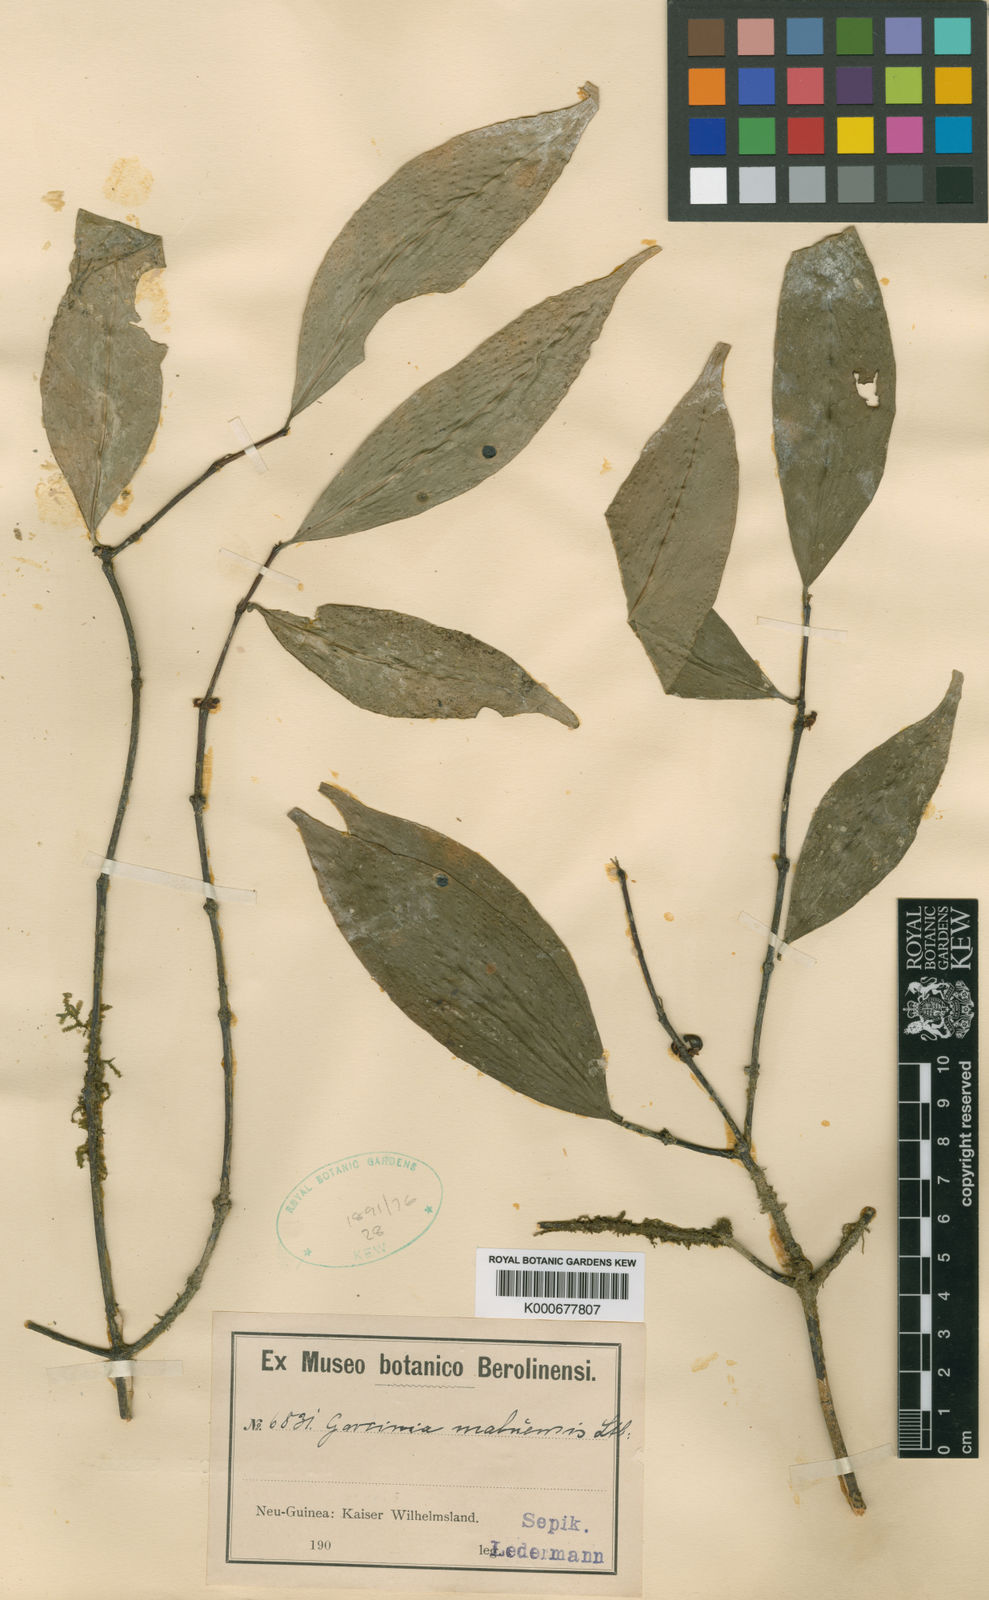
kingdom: Plantae
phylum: Tracheophyta
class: Magnoliopsida
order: Malpighiales
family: Clusiaceae
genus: Garcinia
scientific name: Garcinia maluensis
